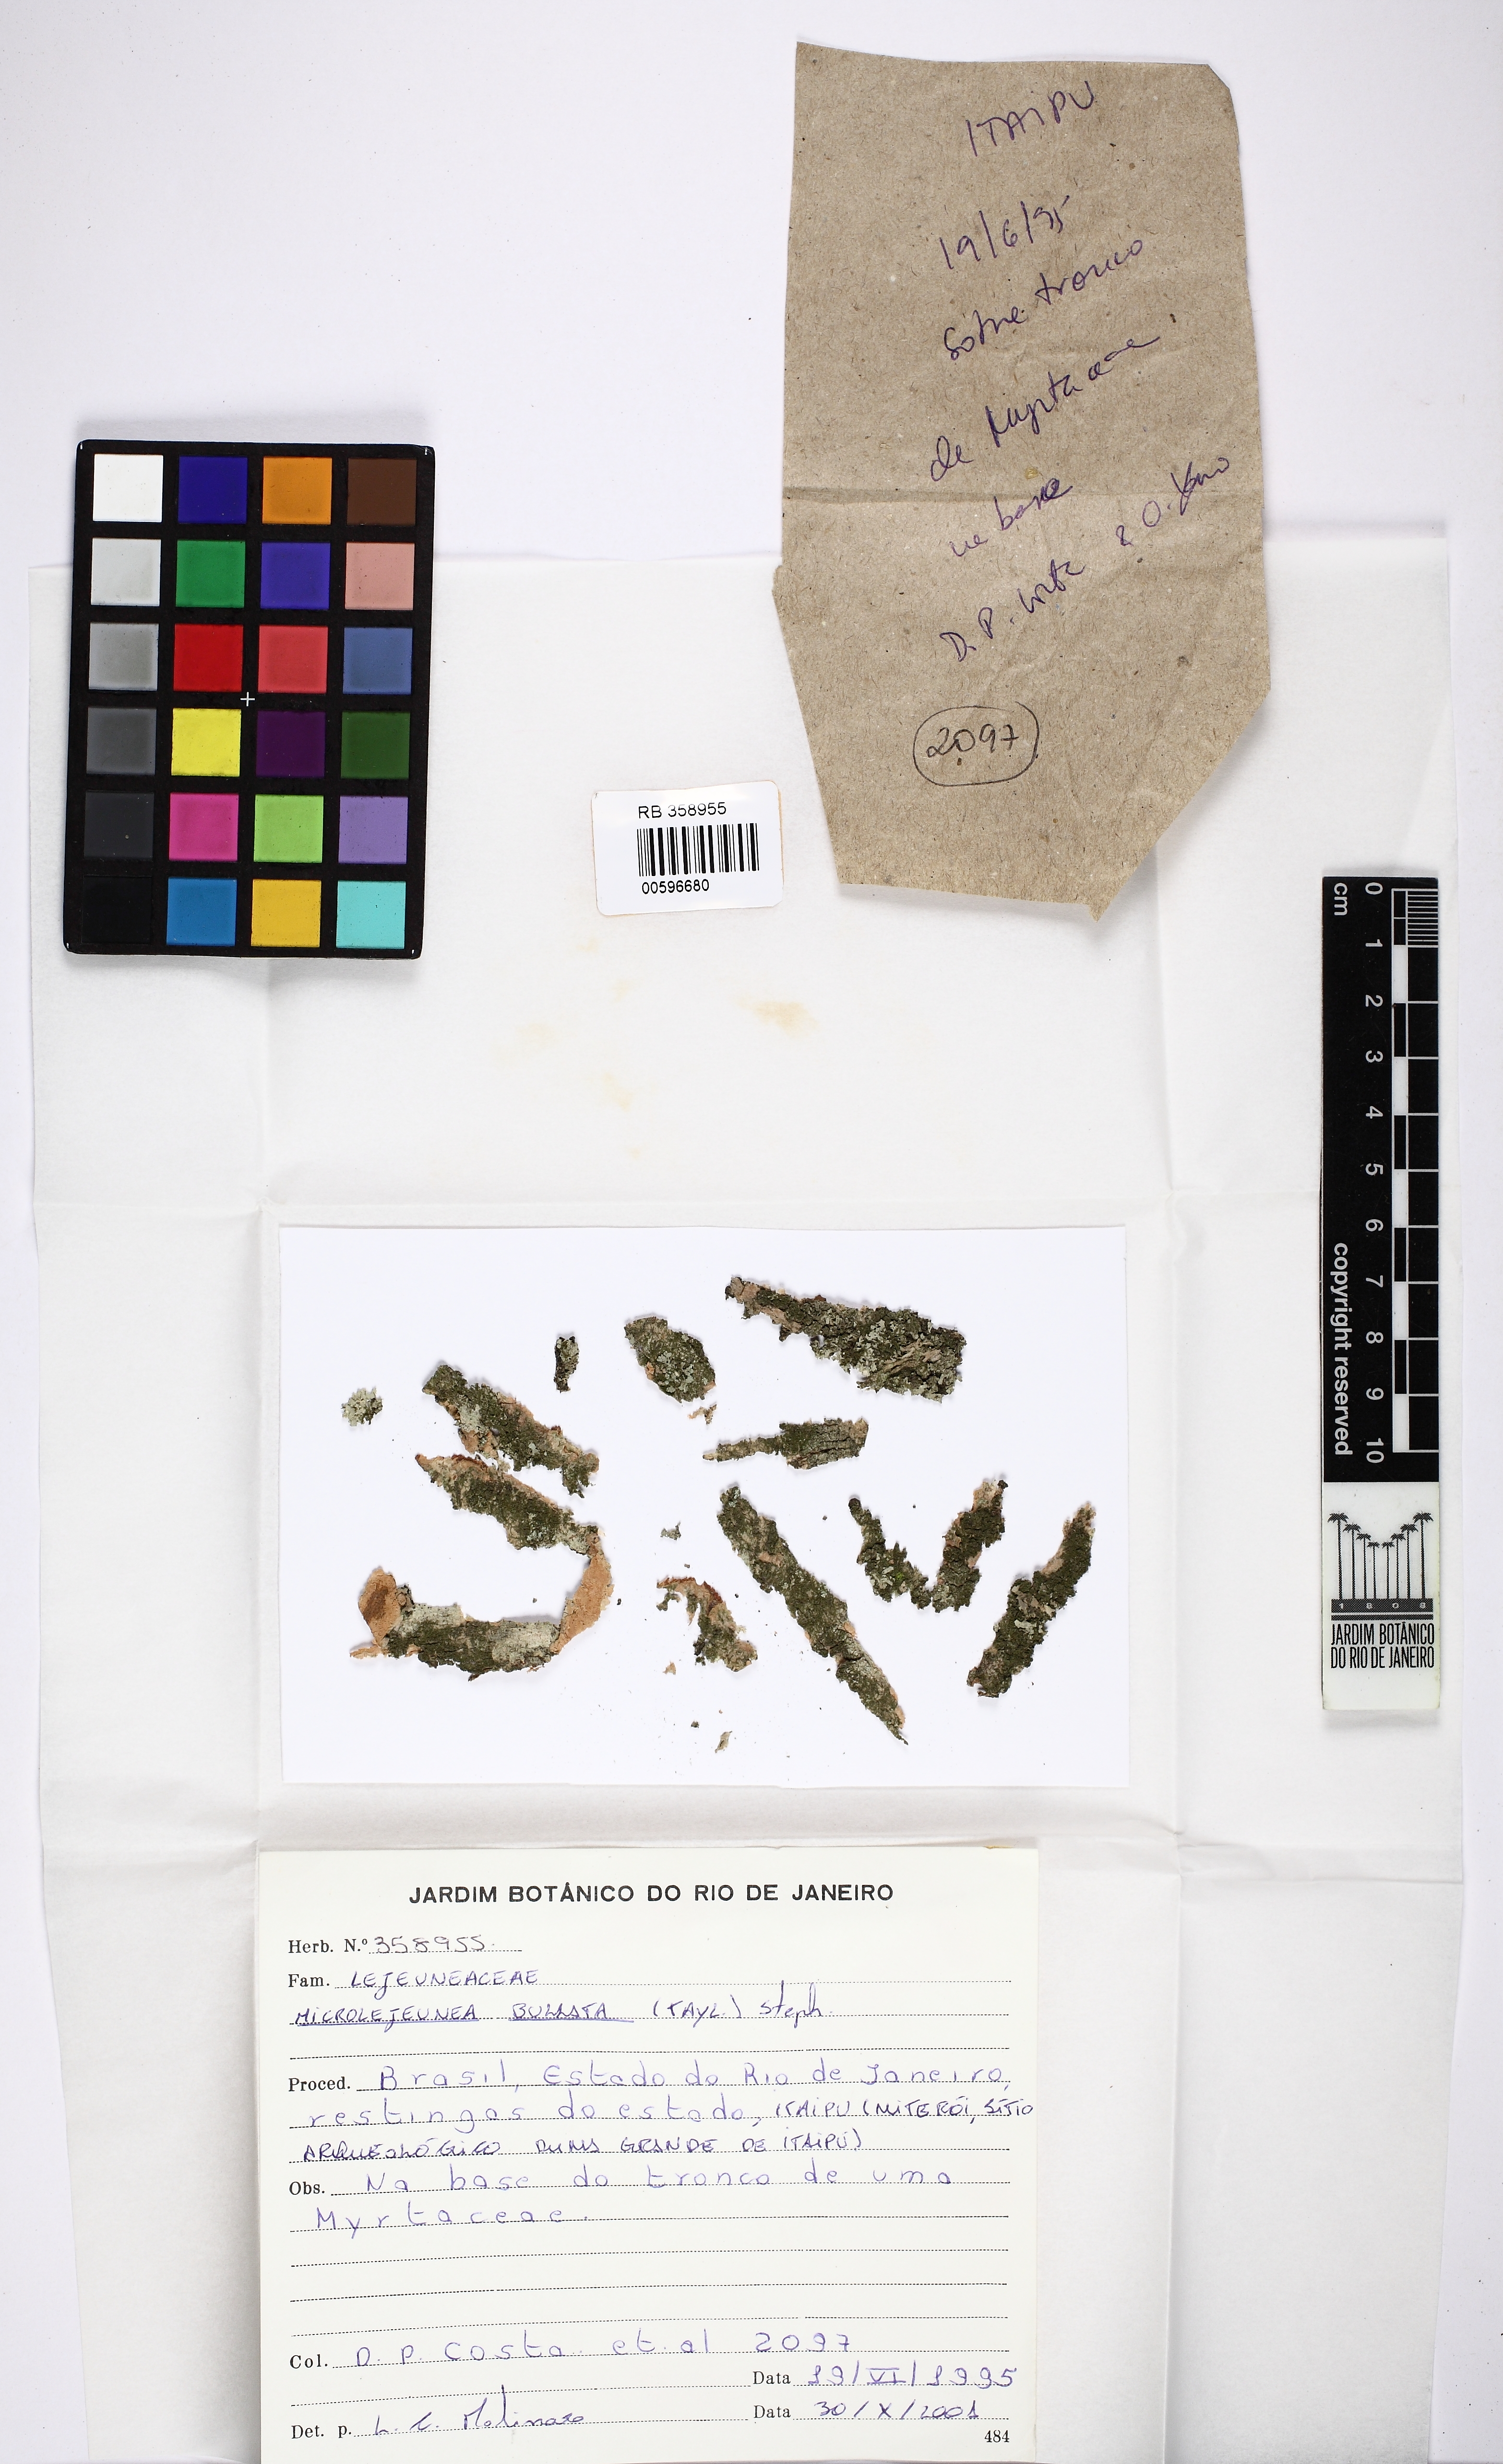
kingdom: Plantae
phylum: Marchantiophyta
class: Jungermanniopsida
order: Porellales
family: Lejeuneaceae
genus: Microlejeunea
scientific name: Microlejeunea bullata
